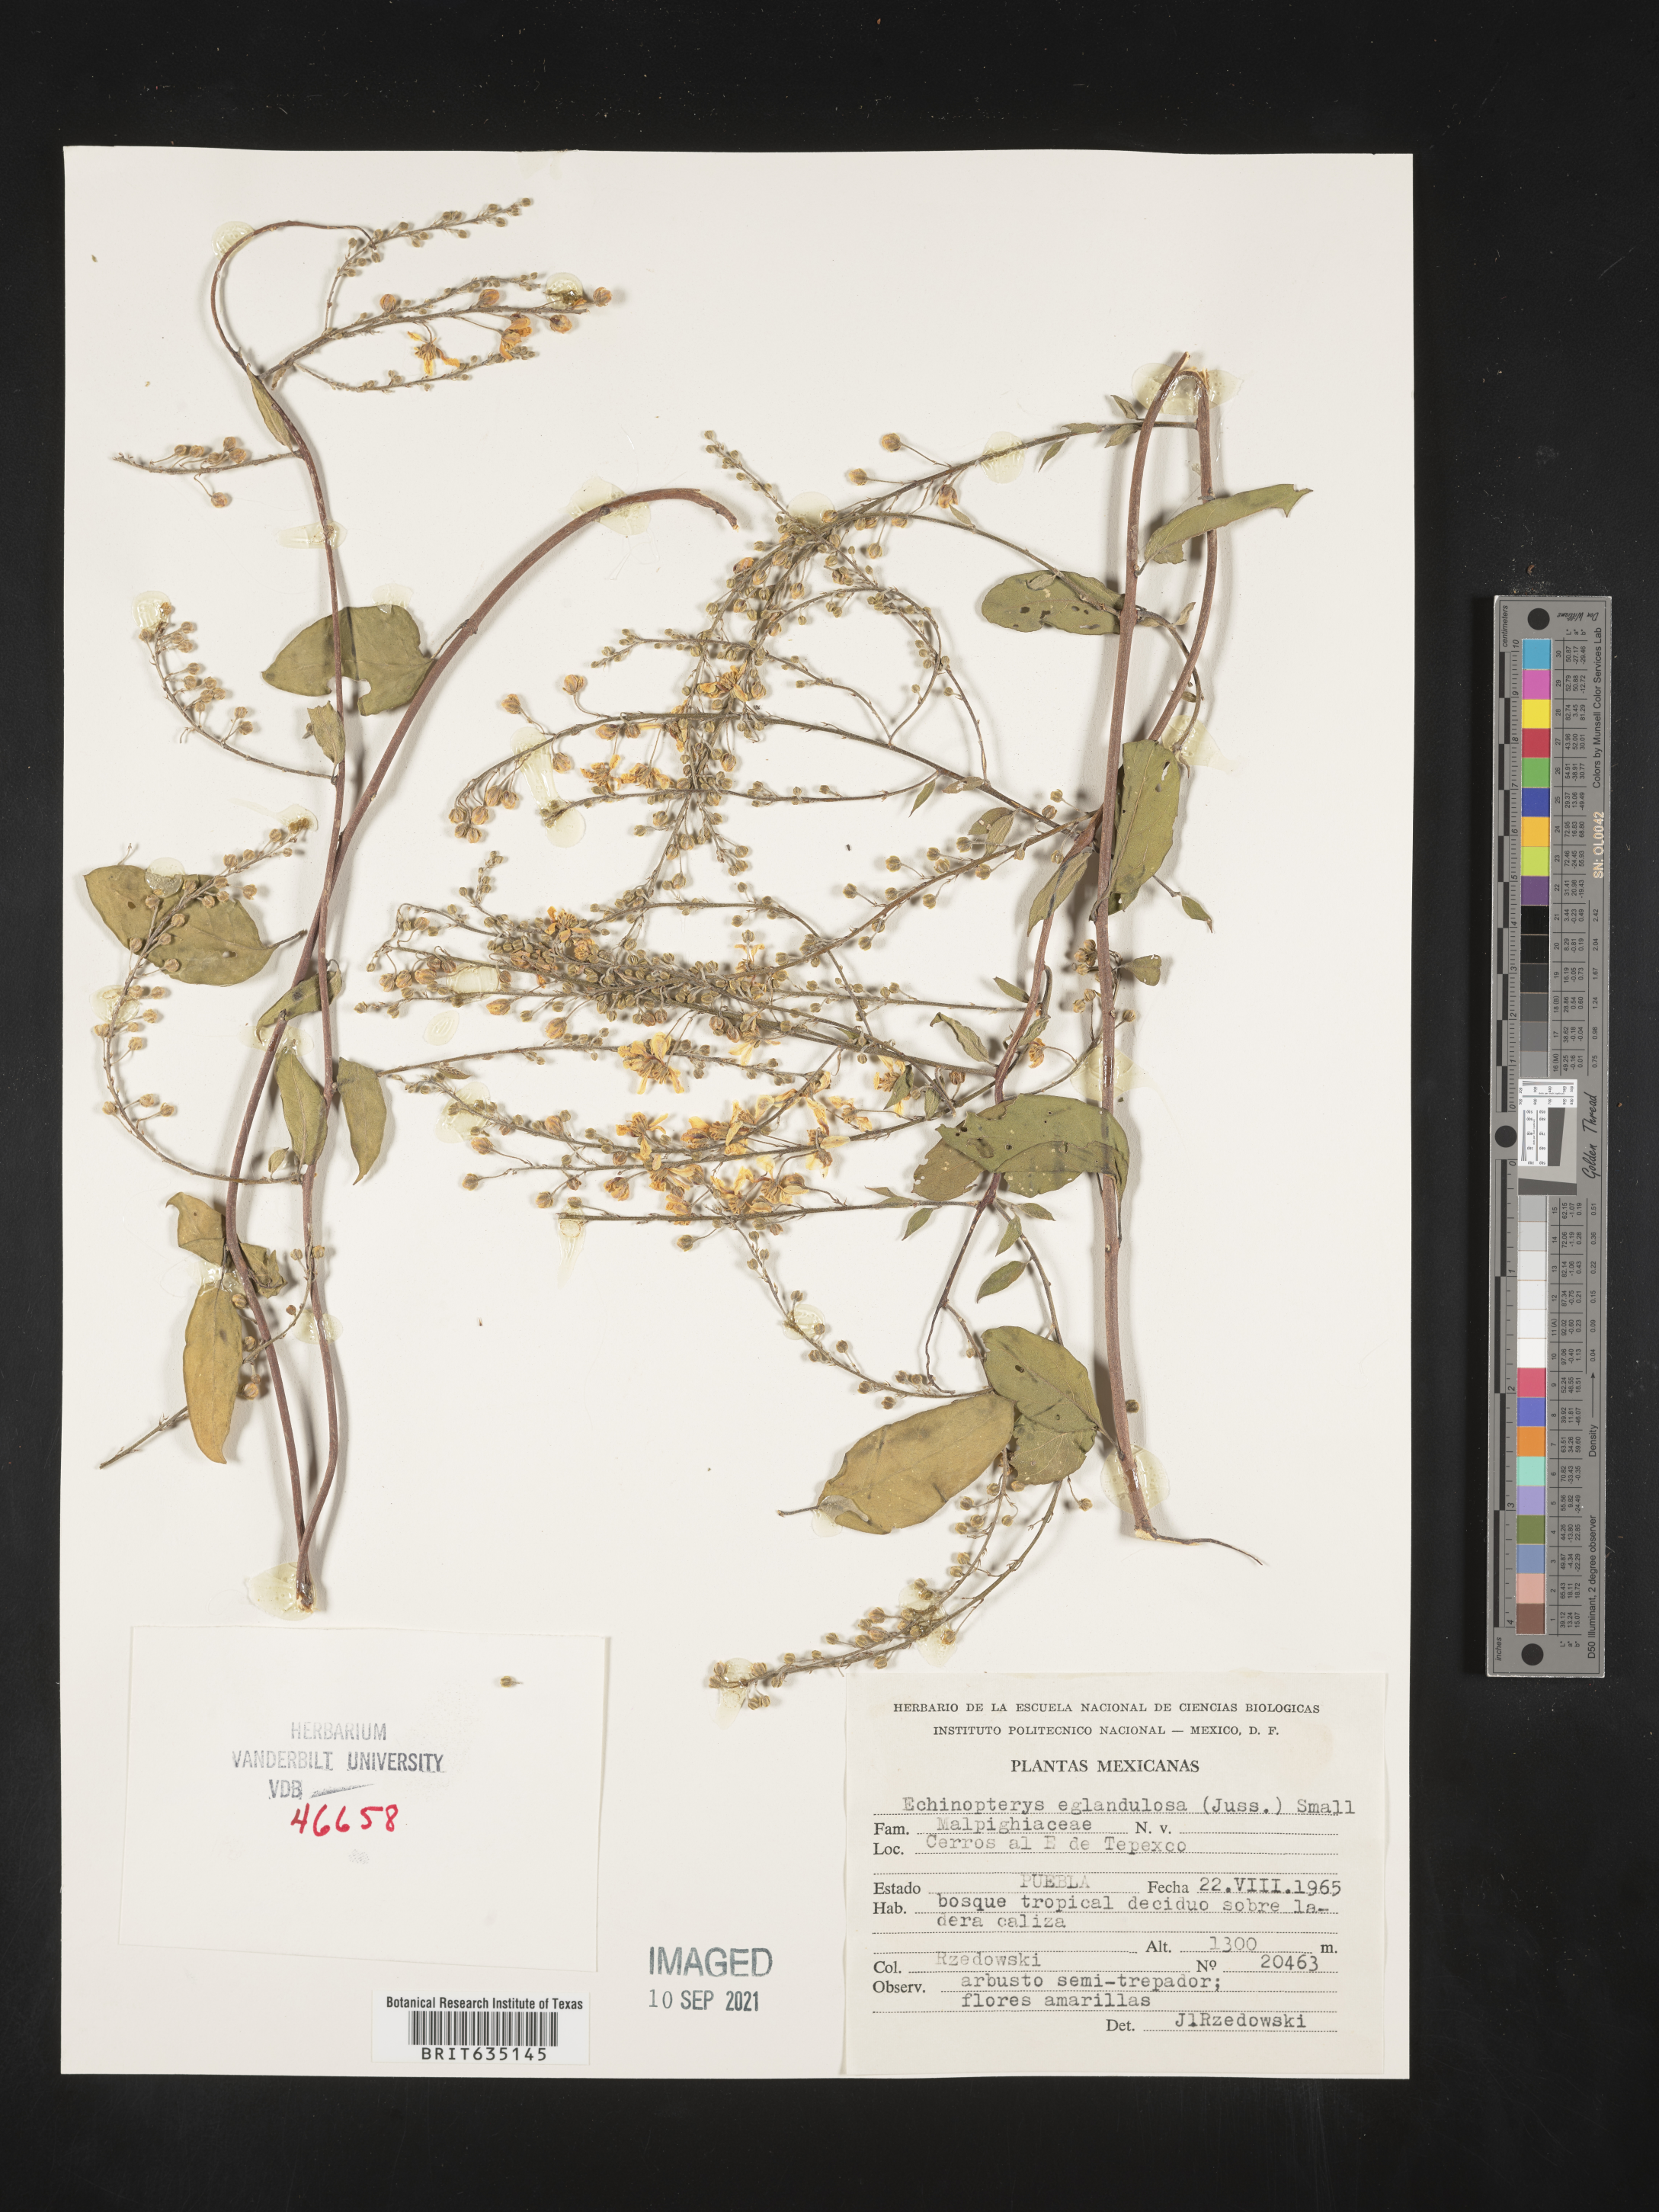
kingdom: Plantae
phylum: Tracheophyta
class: Magnoliopsida
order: Malpighiales
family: Malpighiaceae
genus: Echinopterys
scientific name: Echinopterys
